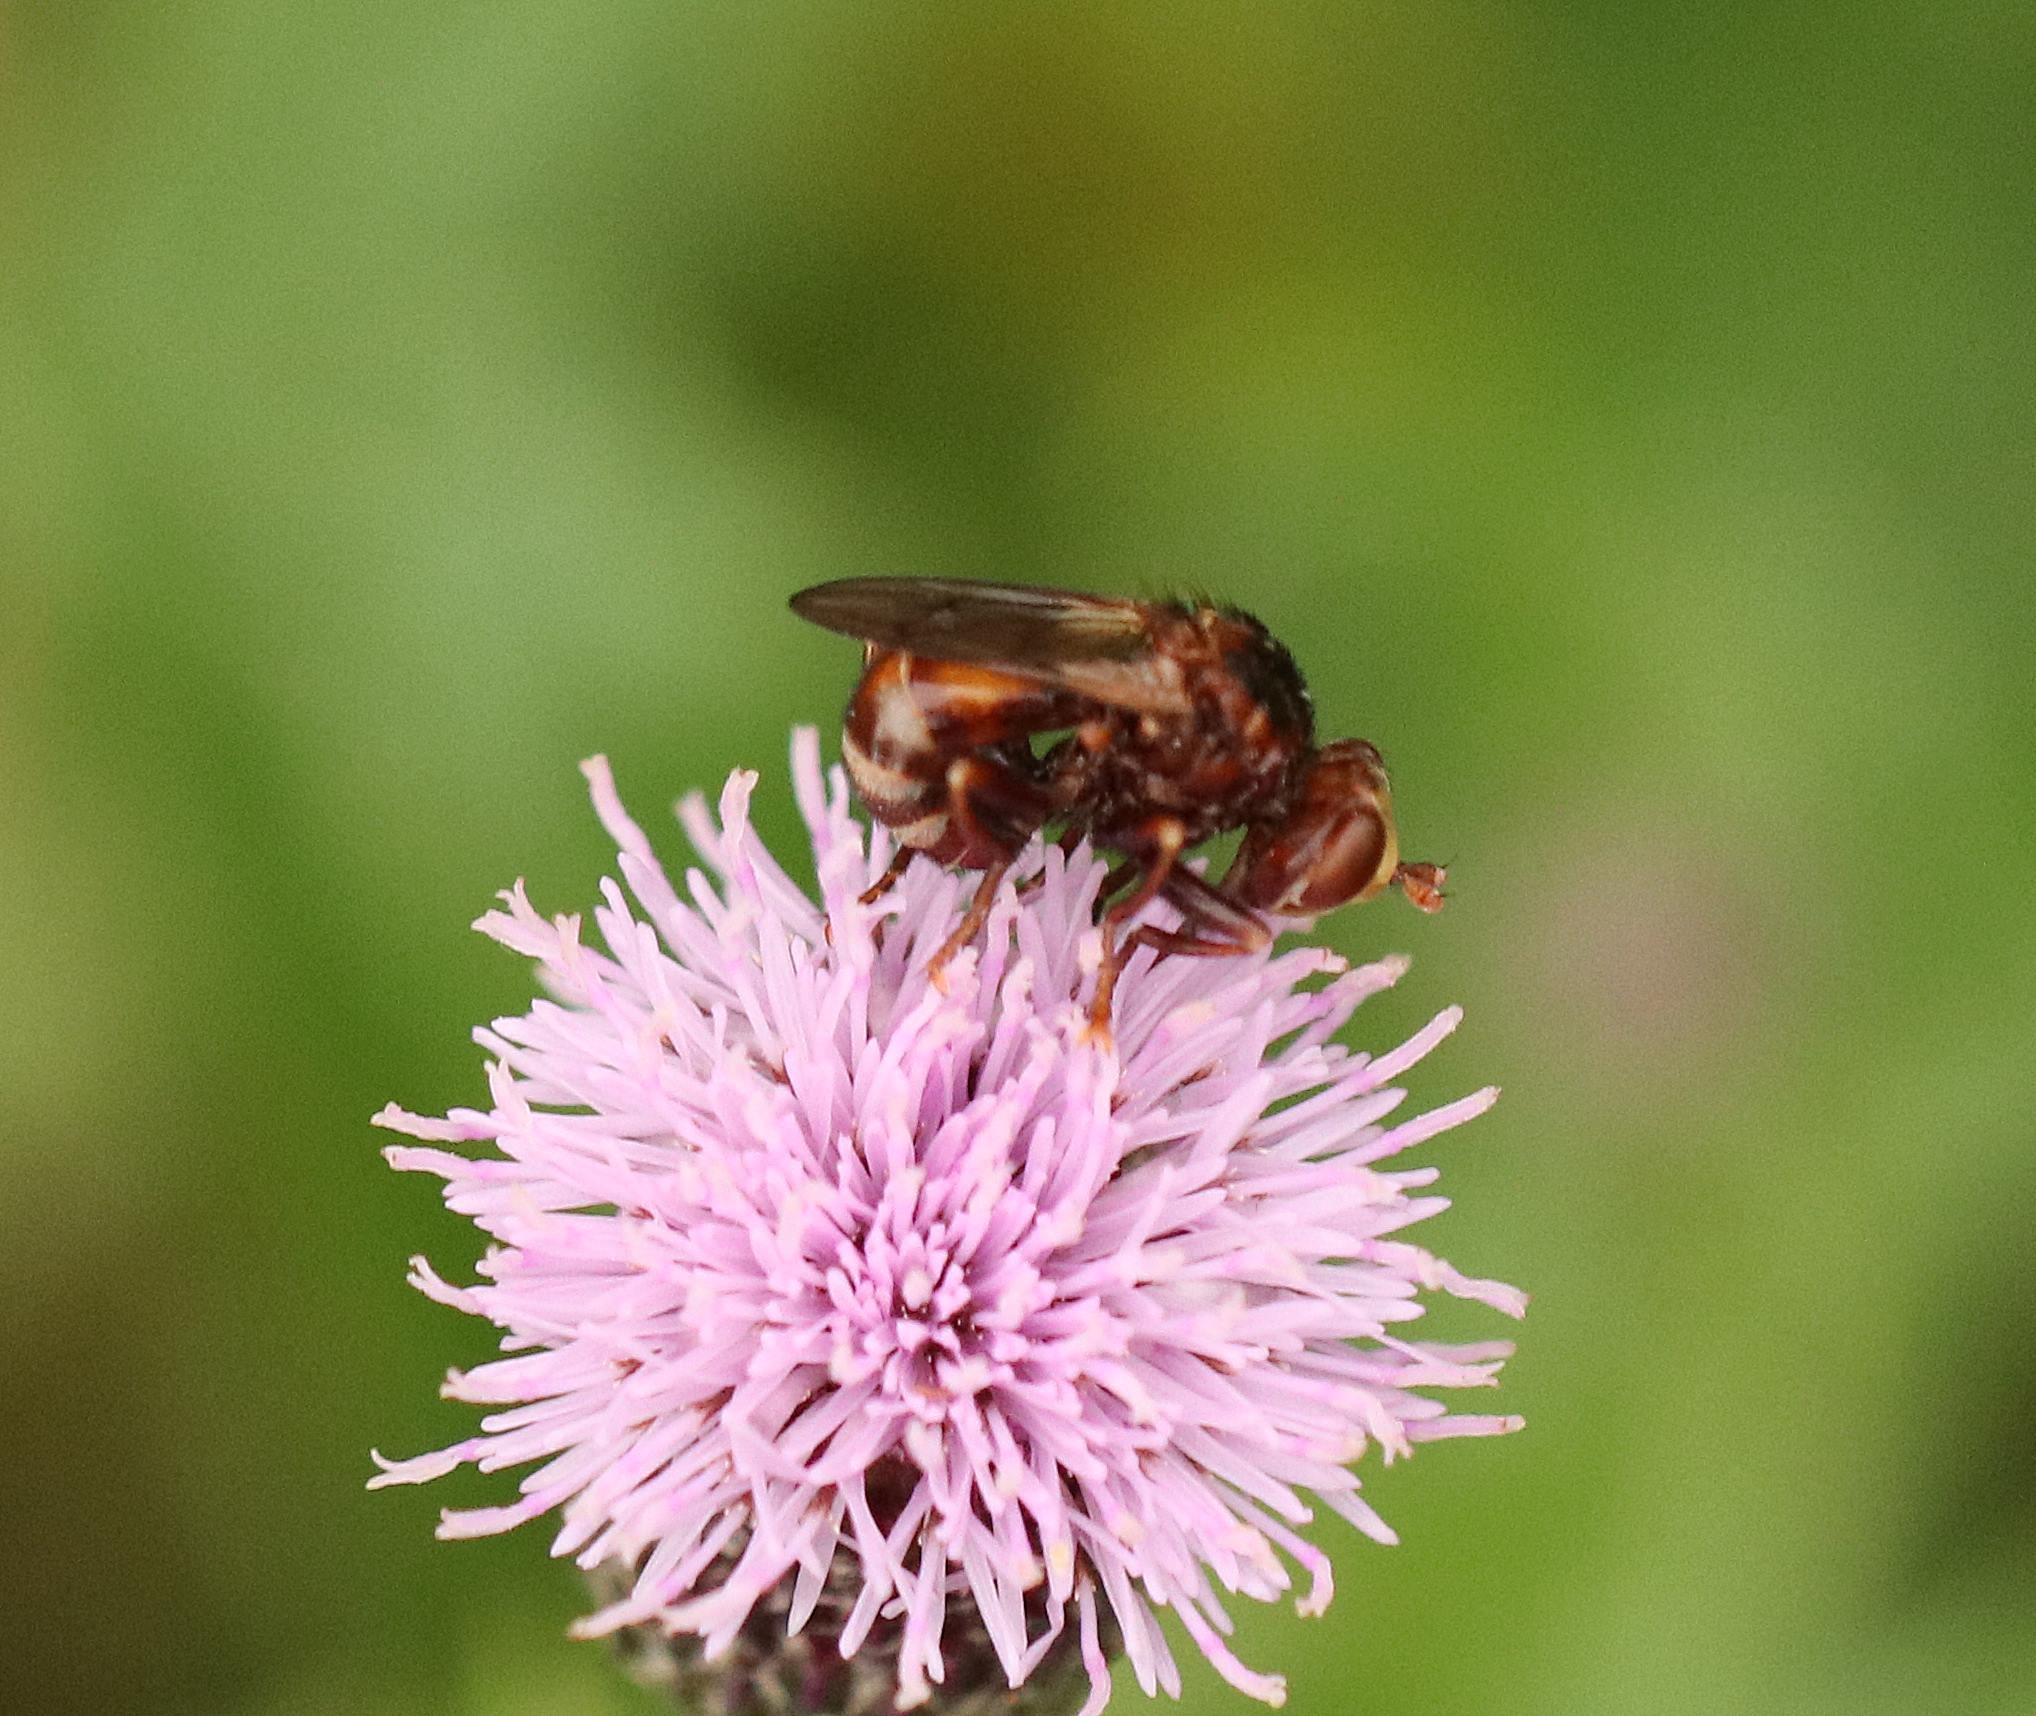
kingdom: Animalia
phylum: Arthropoda
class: Insecta
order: Diptera
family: Conopidae
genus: Sicus
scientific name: Sicus ferrugineus
